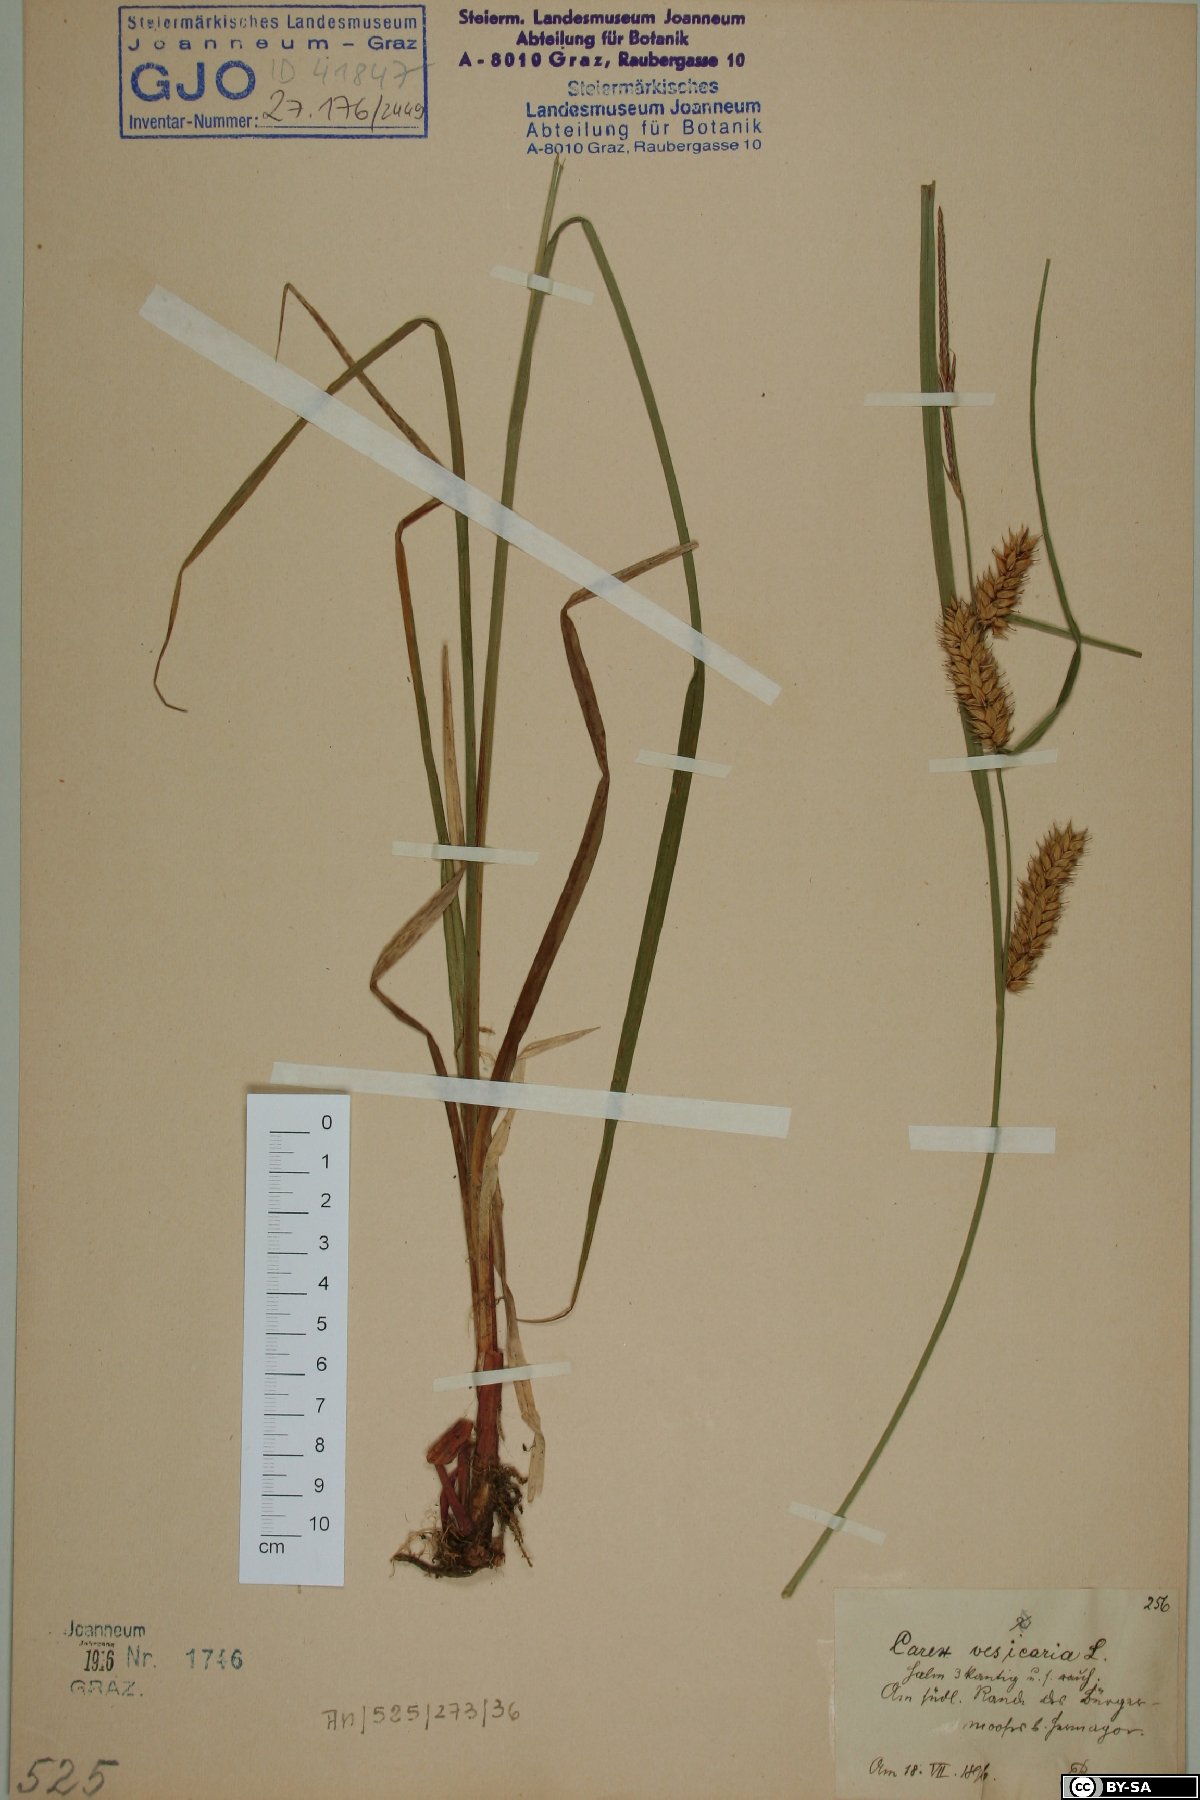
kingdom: Plantae
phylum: Tracheophyta
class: Liliopsida
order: Poales
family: Cyperaceae
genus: Carex
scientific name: Carex vesicaria
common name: Bladder-sedge
